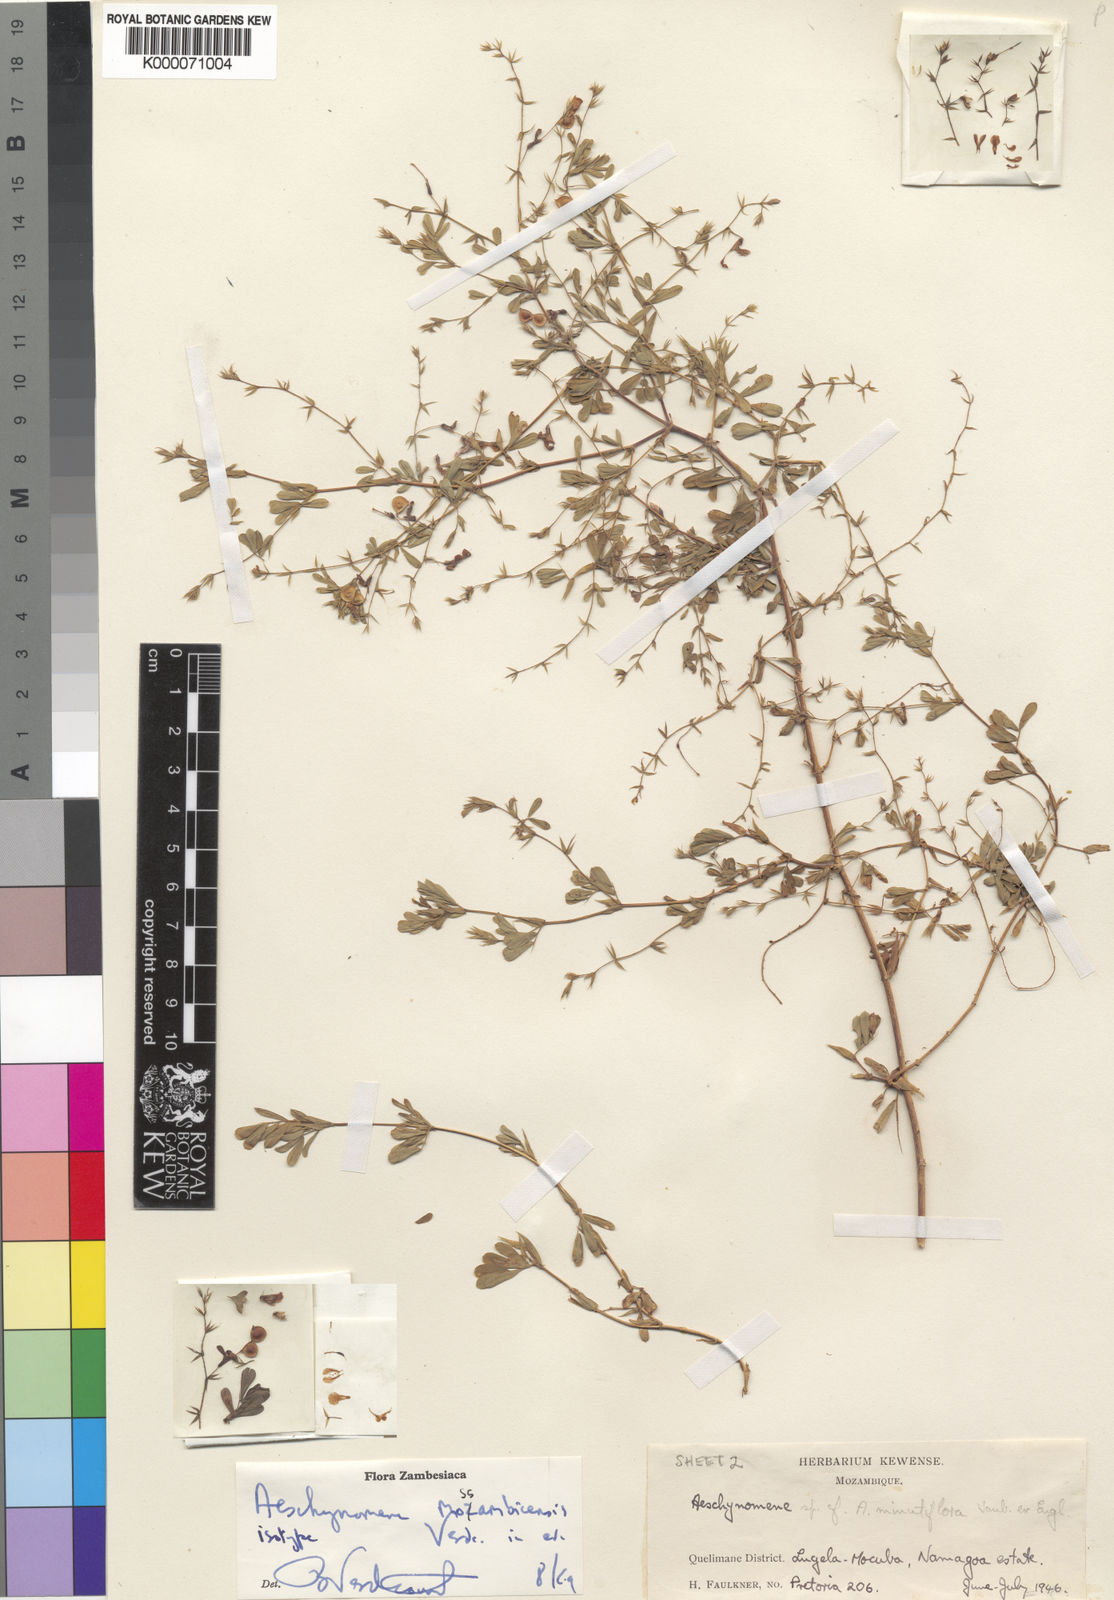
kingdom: Plantae
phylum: Tracheophyta
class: Magnoliopsida
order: Fabales
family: Fabaceae
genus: Aeschynomene
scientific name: Aeschynomene mossambicensis
